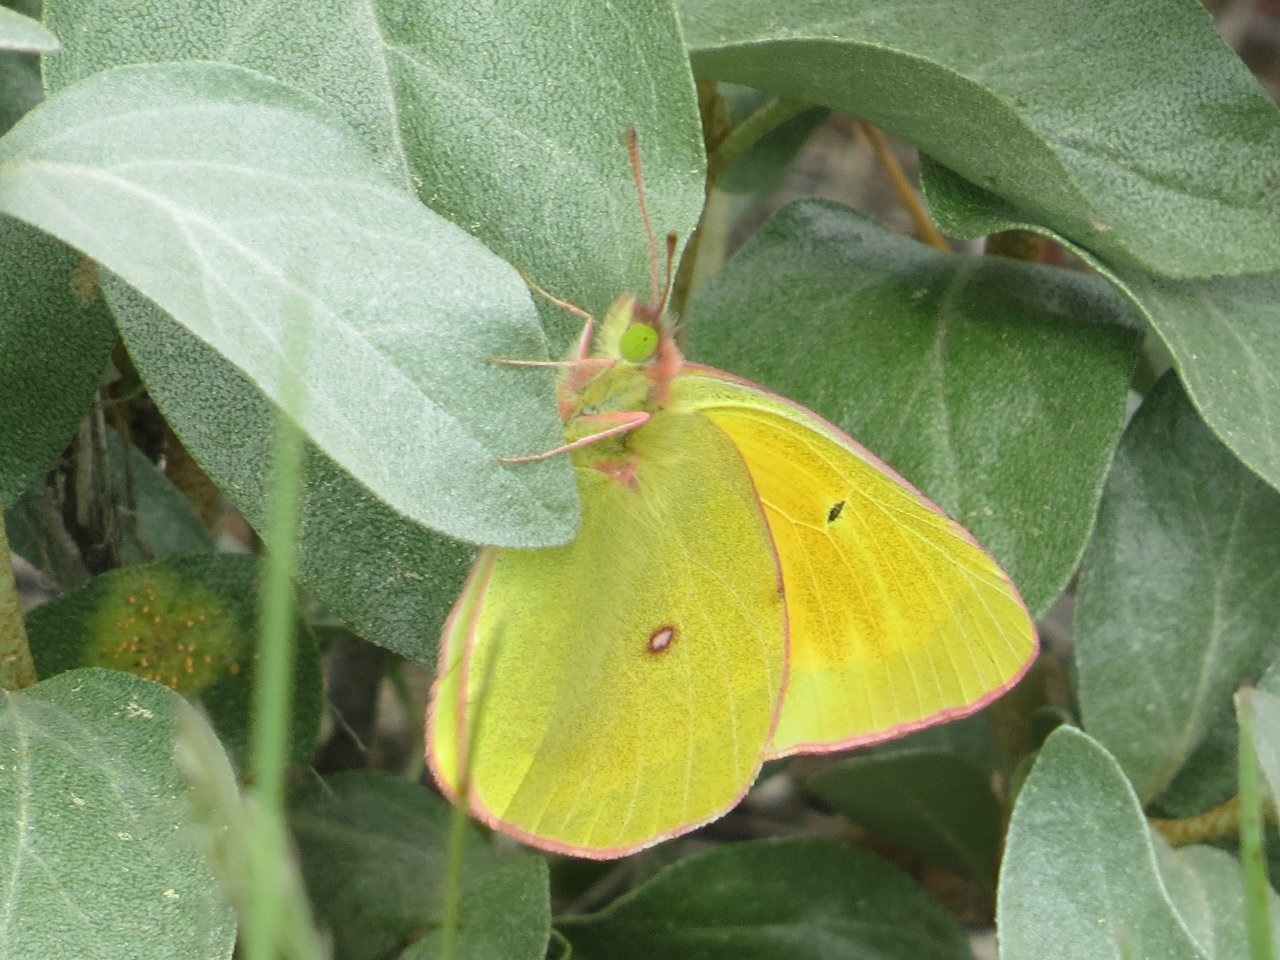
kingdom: Animalia
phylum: Arthropoda
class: Insecta
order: Lepidoptera
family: Pieridae
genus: Colias
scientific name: Colias pelidne
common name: Pelidne Sulphur
